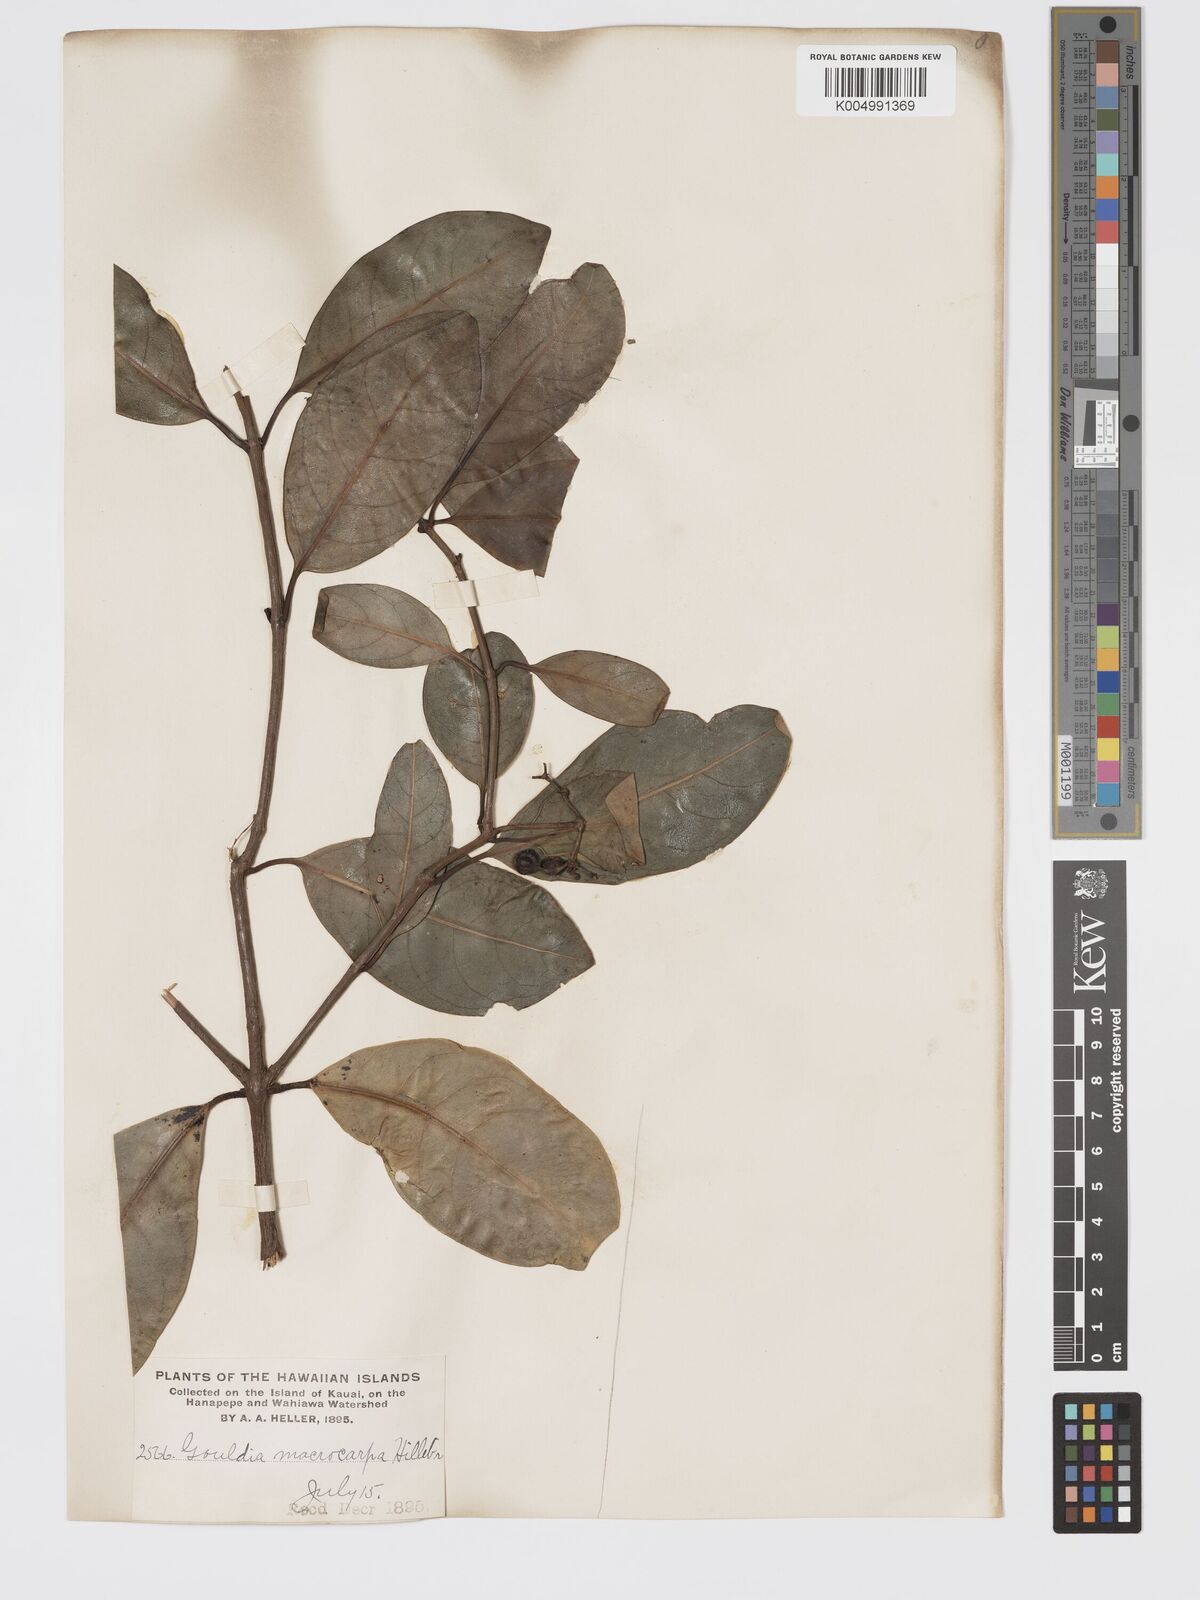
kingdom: Plantae
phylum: Tracheophyta
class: Magnoliopsida
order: Gentianales
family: Rubiaceae
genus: Kadua
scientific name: Kadua affinis
